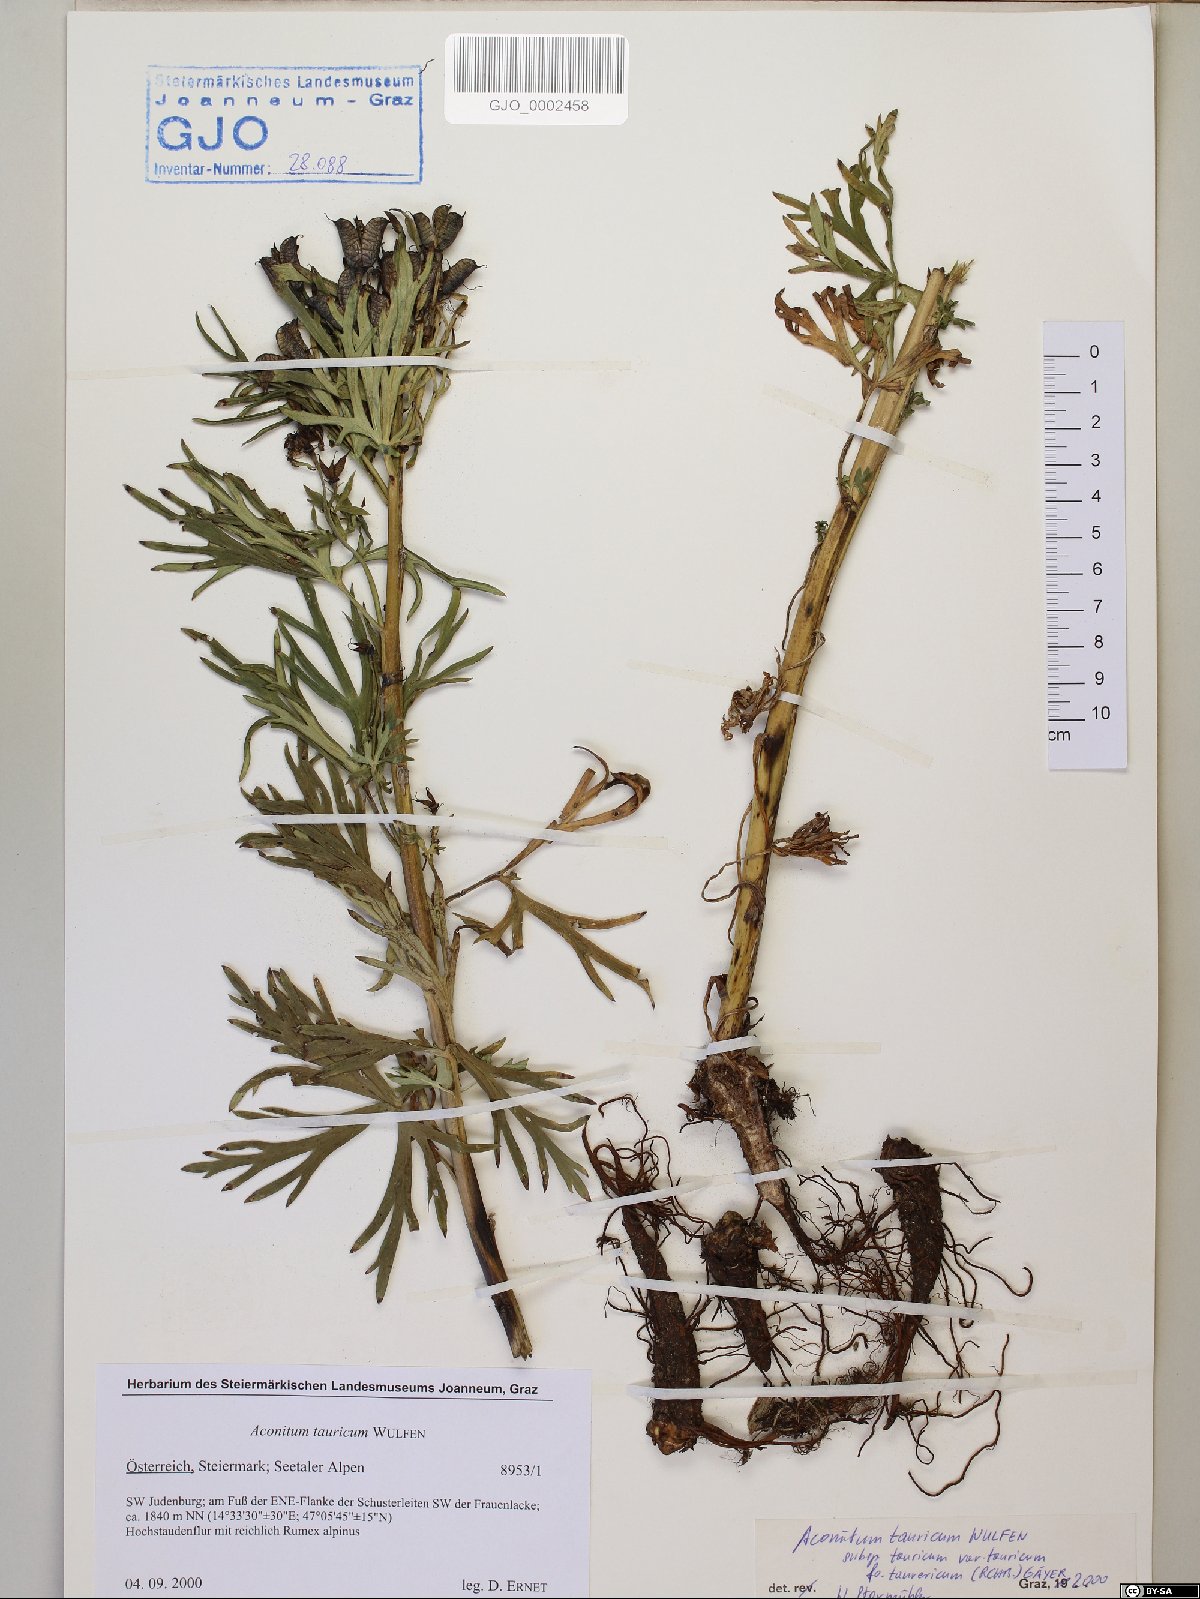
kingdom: Plantae
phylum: Tracheophyta
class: Magnoliopsida
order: Ranunculales
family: Ranunculaceae
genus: Aconitum
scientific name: Aconitum tauricum
